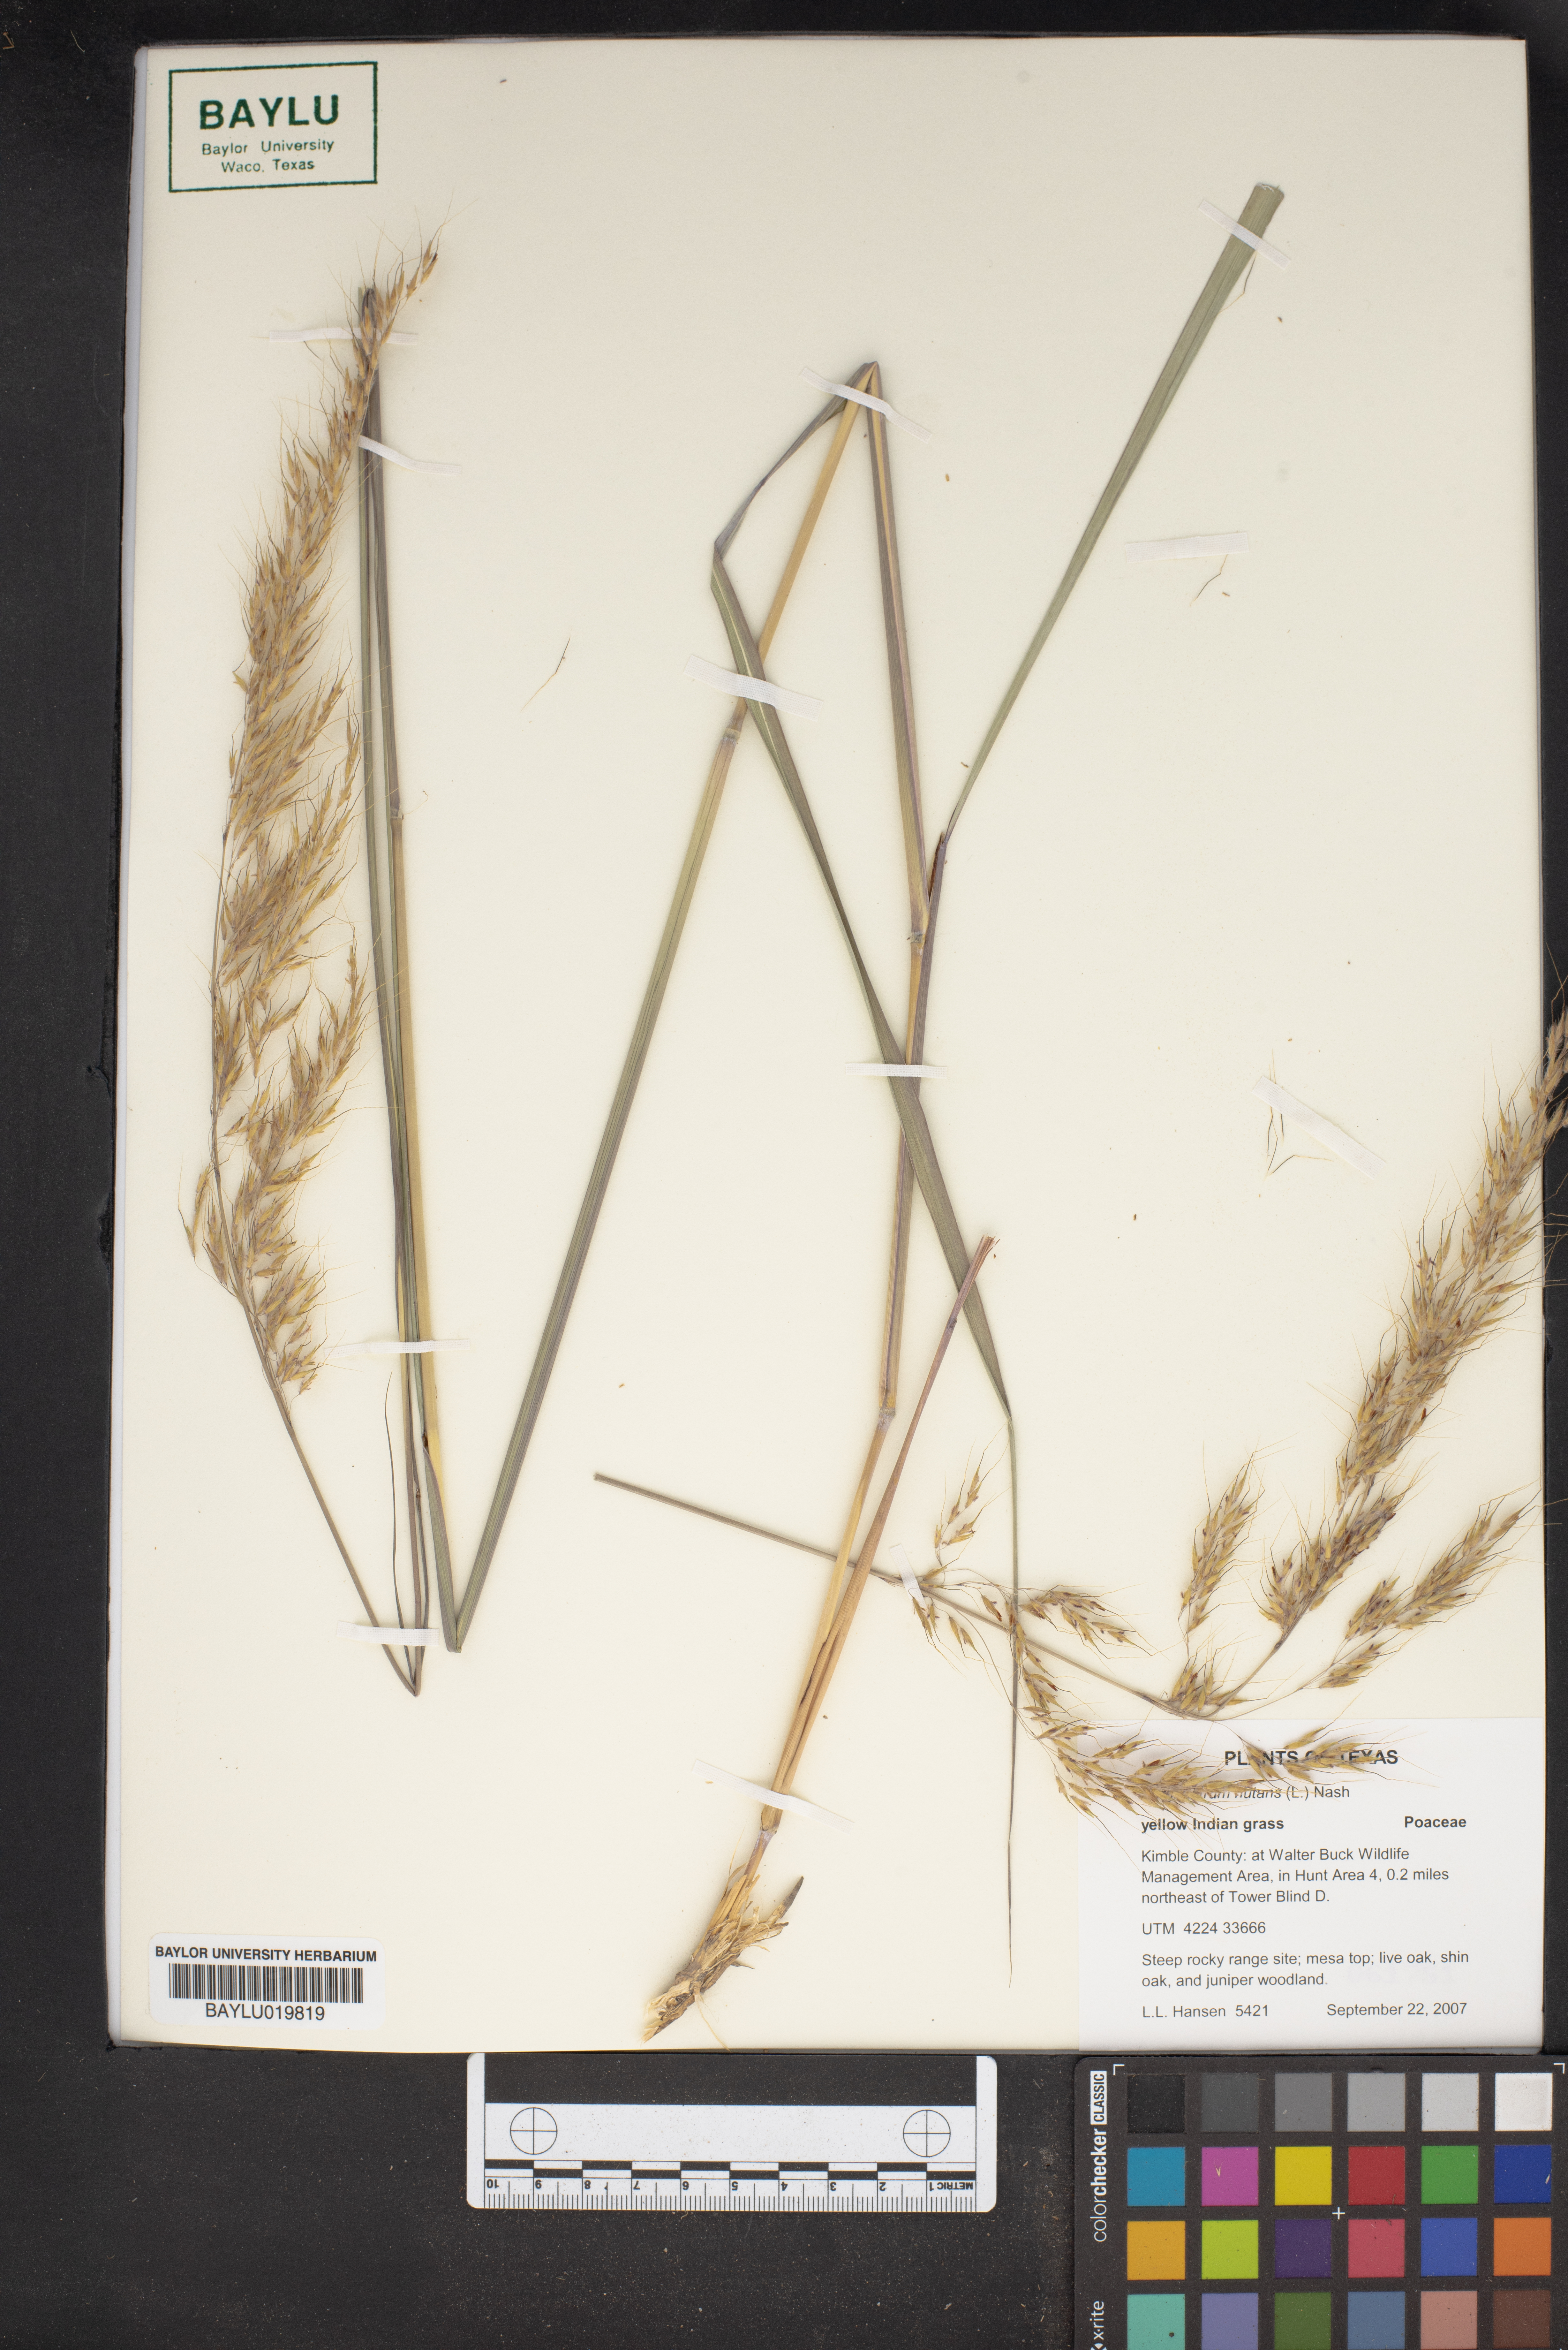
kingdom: Plantae
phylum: Tracheophyta
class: Liliopsida
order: Poales
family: Poaceae
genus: Sorghastrum
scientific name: Sorghastrum nutans
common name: Indian grass
